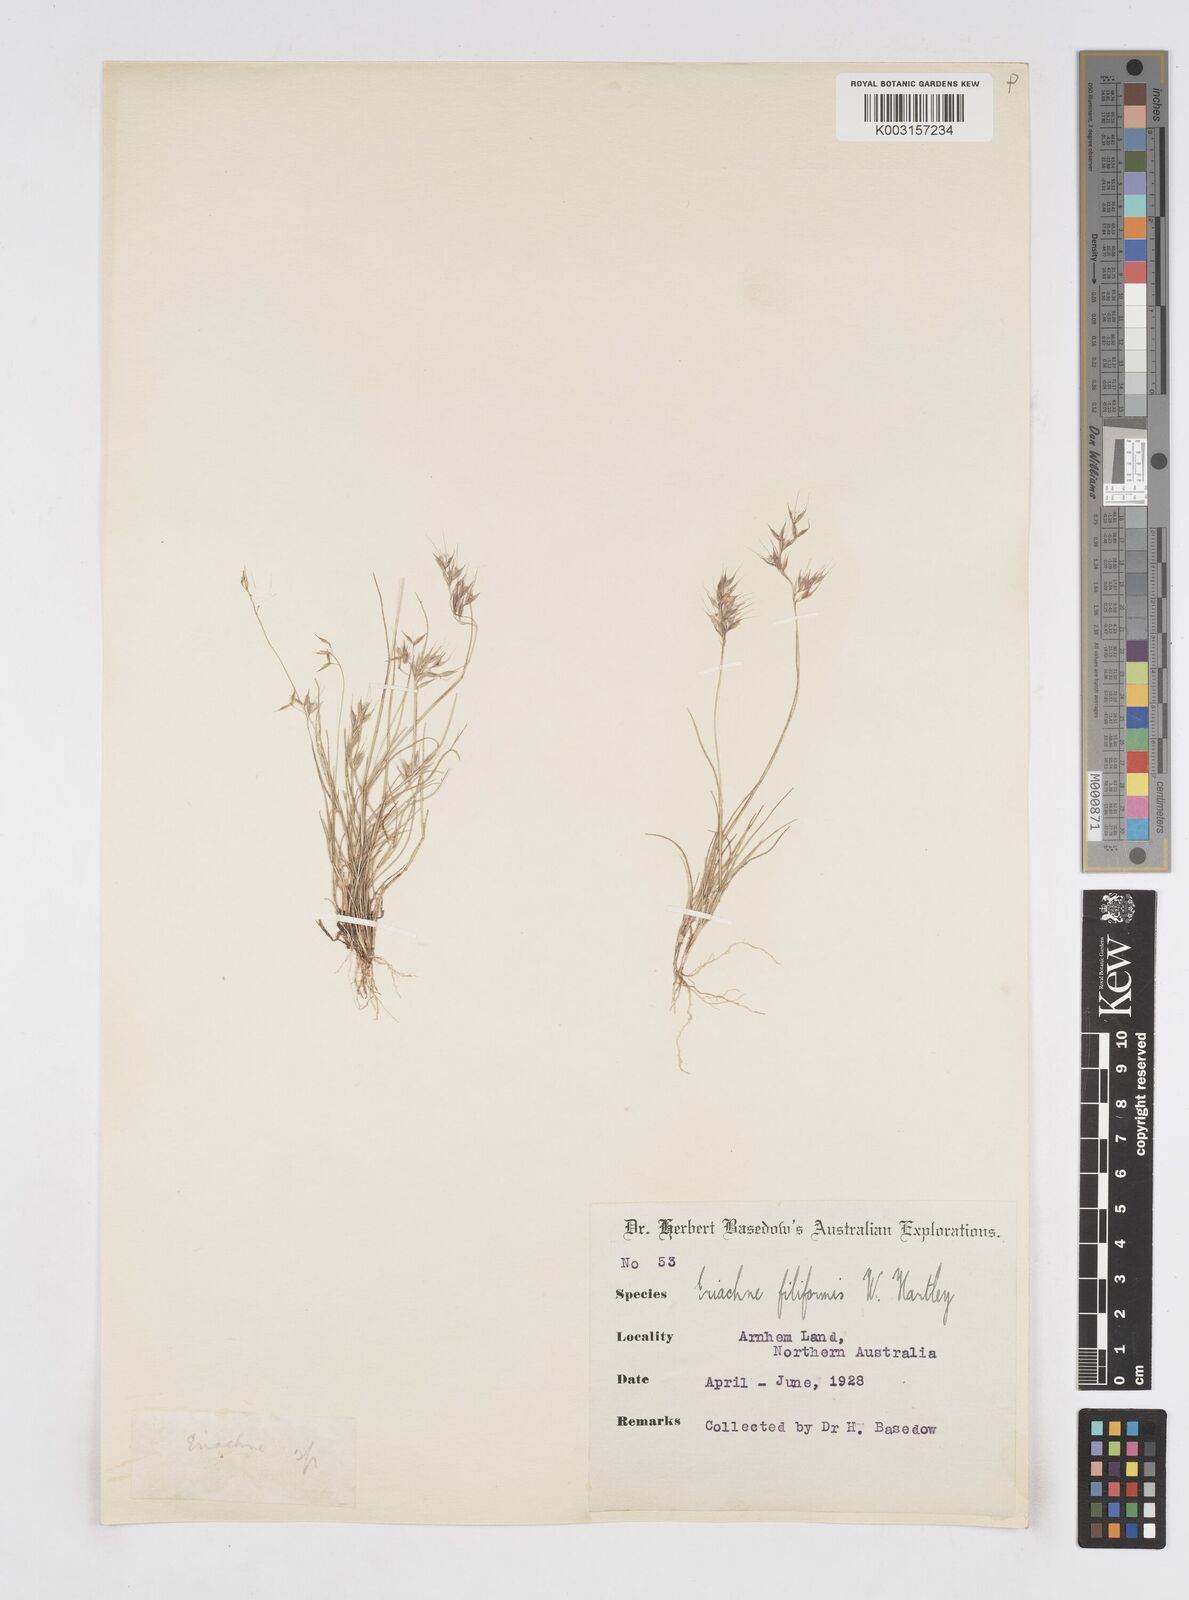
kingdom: Plantae
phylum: Tracheophyta
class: Liliopsida
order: Poales
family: Poaceae
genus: Eriachne
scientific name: Eriachne filiformis
